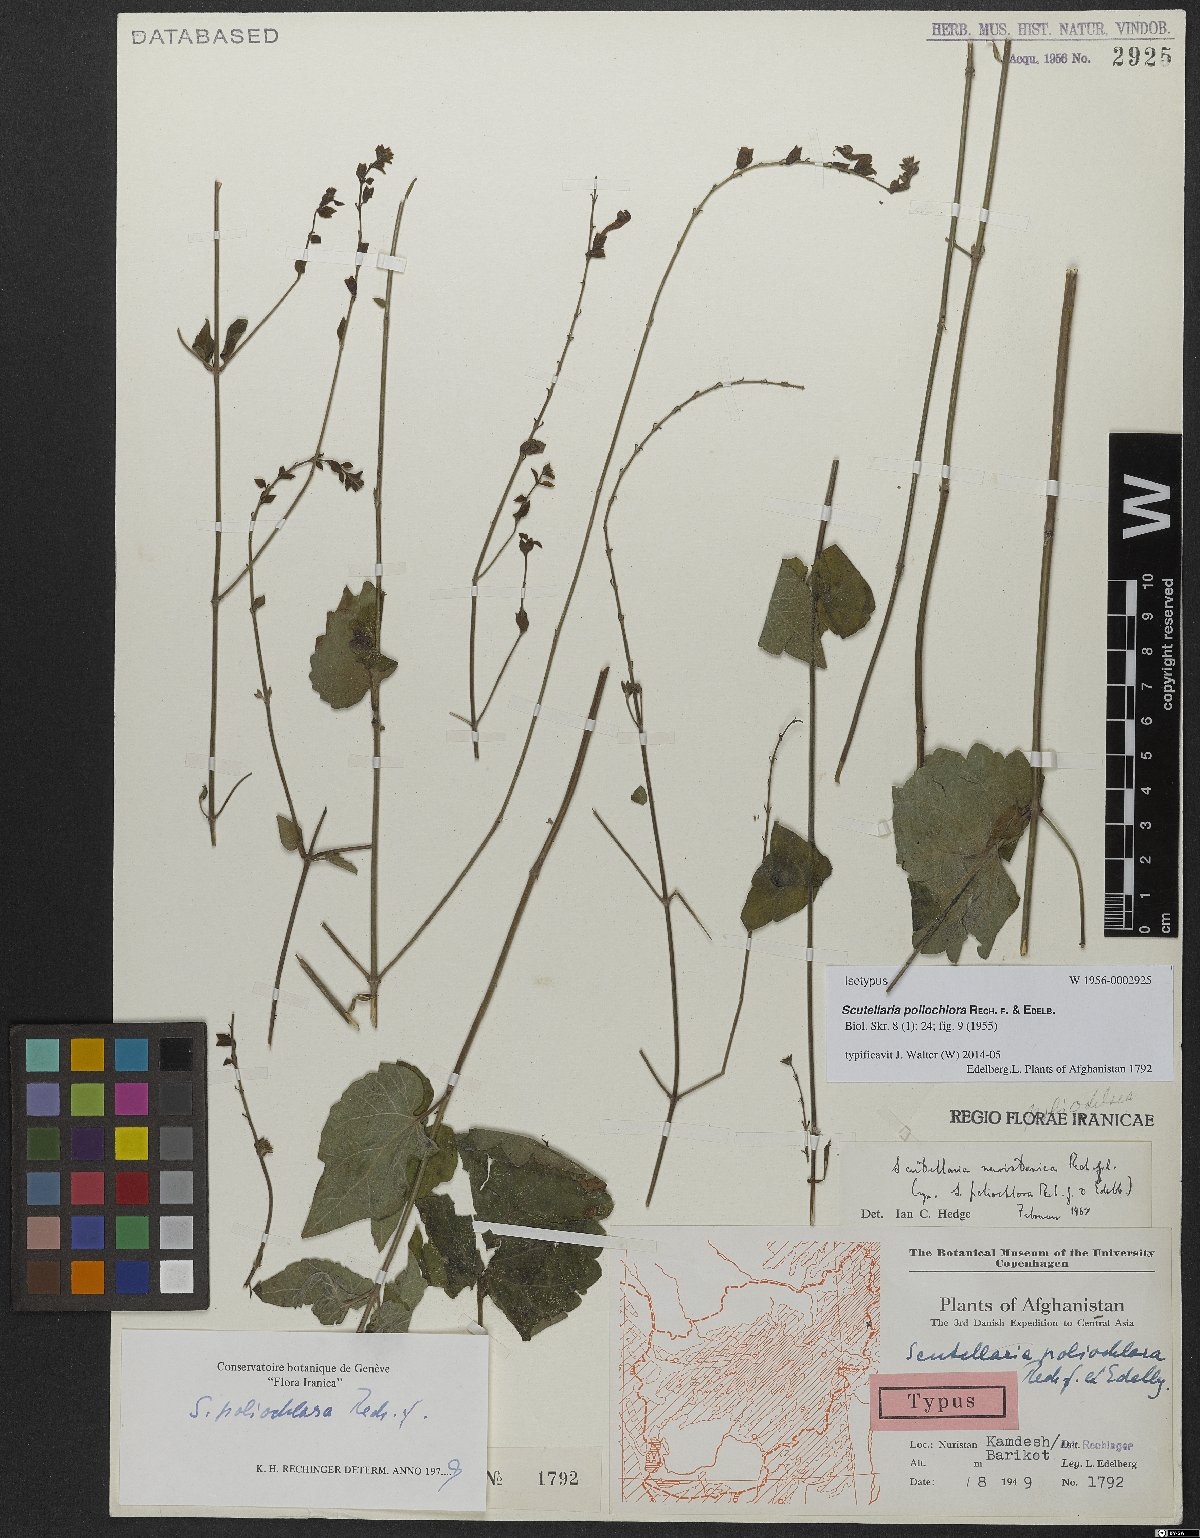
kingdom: Plantae
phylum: Tracheophyta
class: Magnoliopsida
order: Lamiales
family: Lamiaceae
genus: Scutellaria
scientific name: Scutellaria poliochlora
